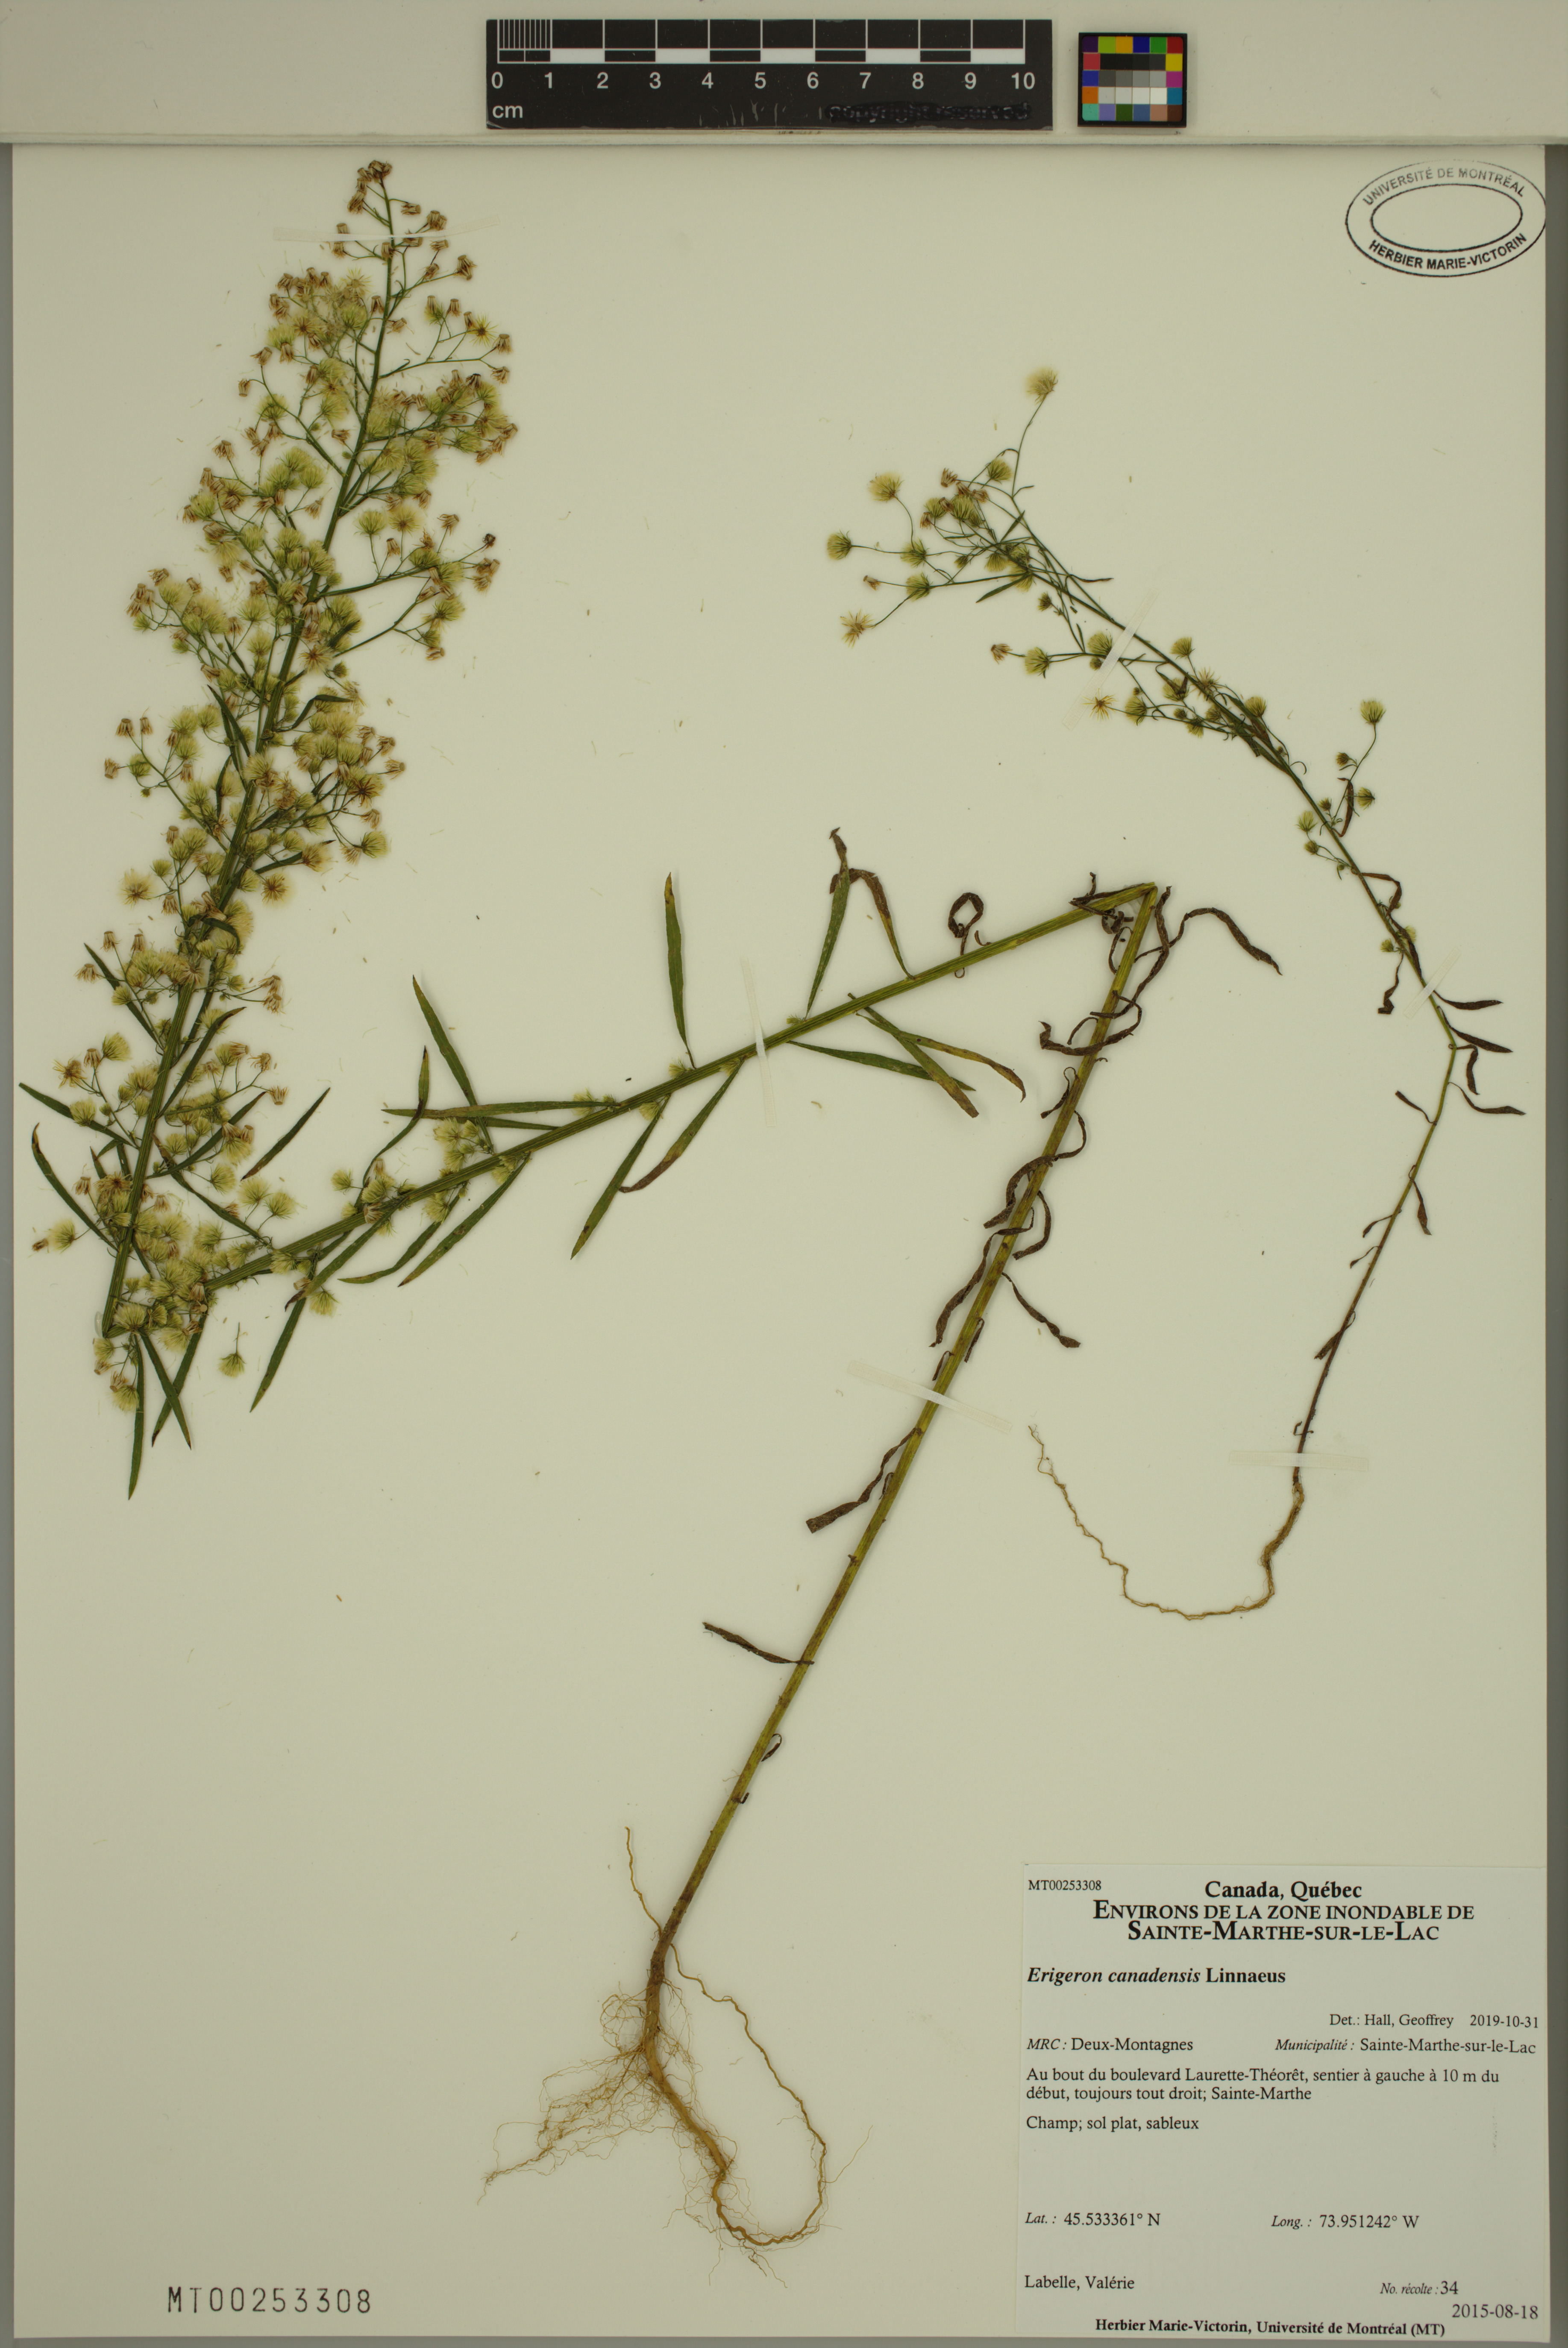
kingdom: Plantae
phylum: Tracheophyta
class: Magnoliopsida
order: Asterales
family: Asteraceae
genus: Erigeron
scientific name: Erigeron canadensis
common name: Canadian fleabane
